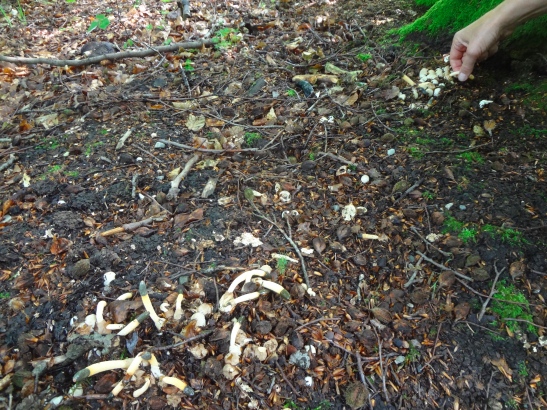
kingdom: Fungi
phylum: Basidiomycota
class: Agaricomycetes
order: Phallales
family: Phallaceae
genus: Mutinus
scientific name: Mutinus caninus
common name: hunde-stinksvamp
